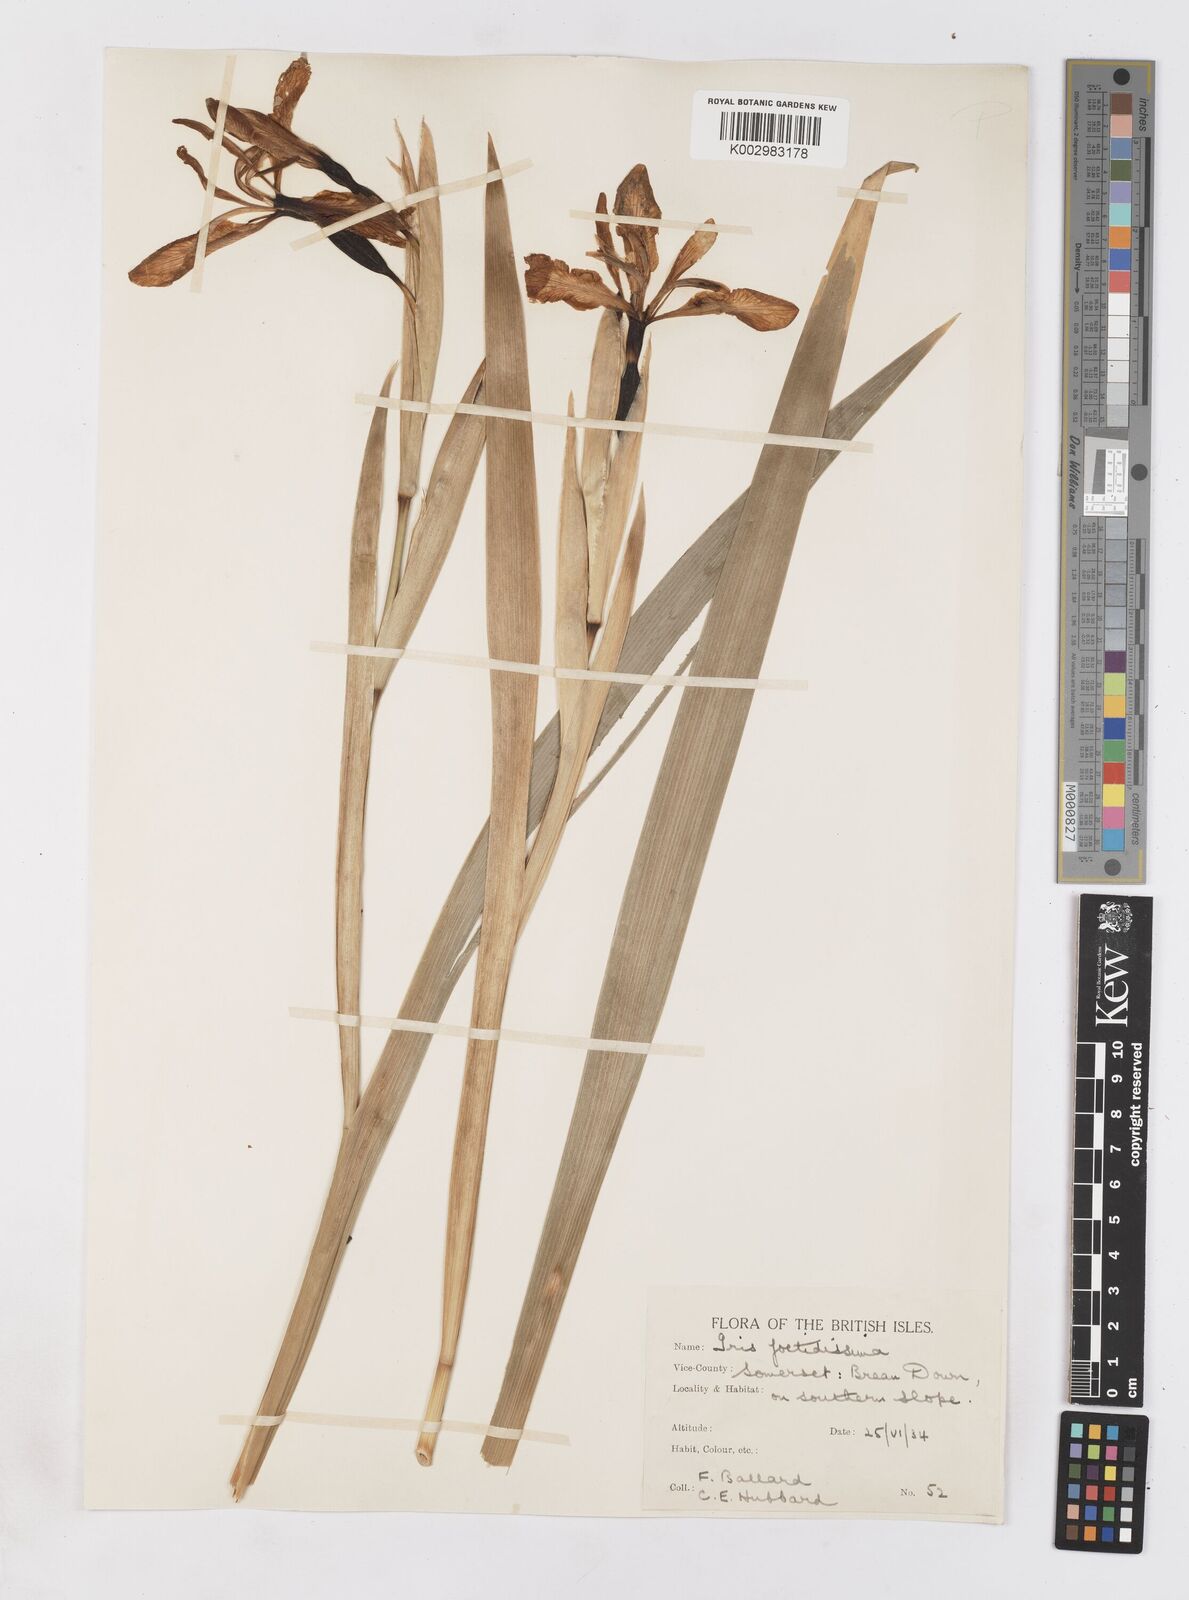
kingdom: Plantae
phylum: Tracheophyta
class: Liliopsida
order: Asparagales
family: Iridaceae
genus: Iris
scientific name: Iris foetidissima
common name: Stinking iris
